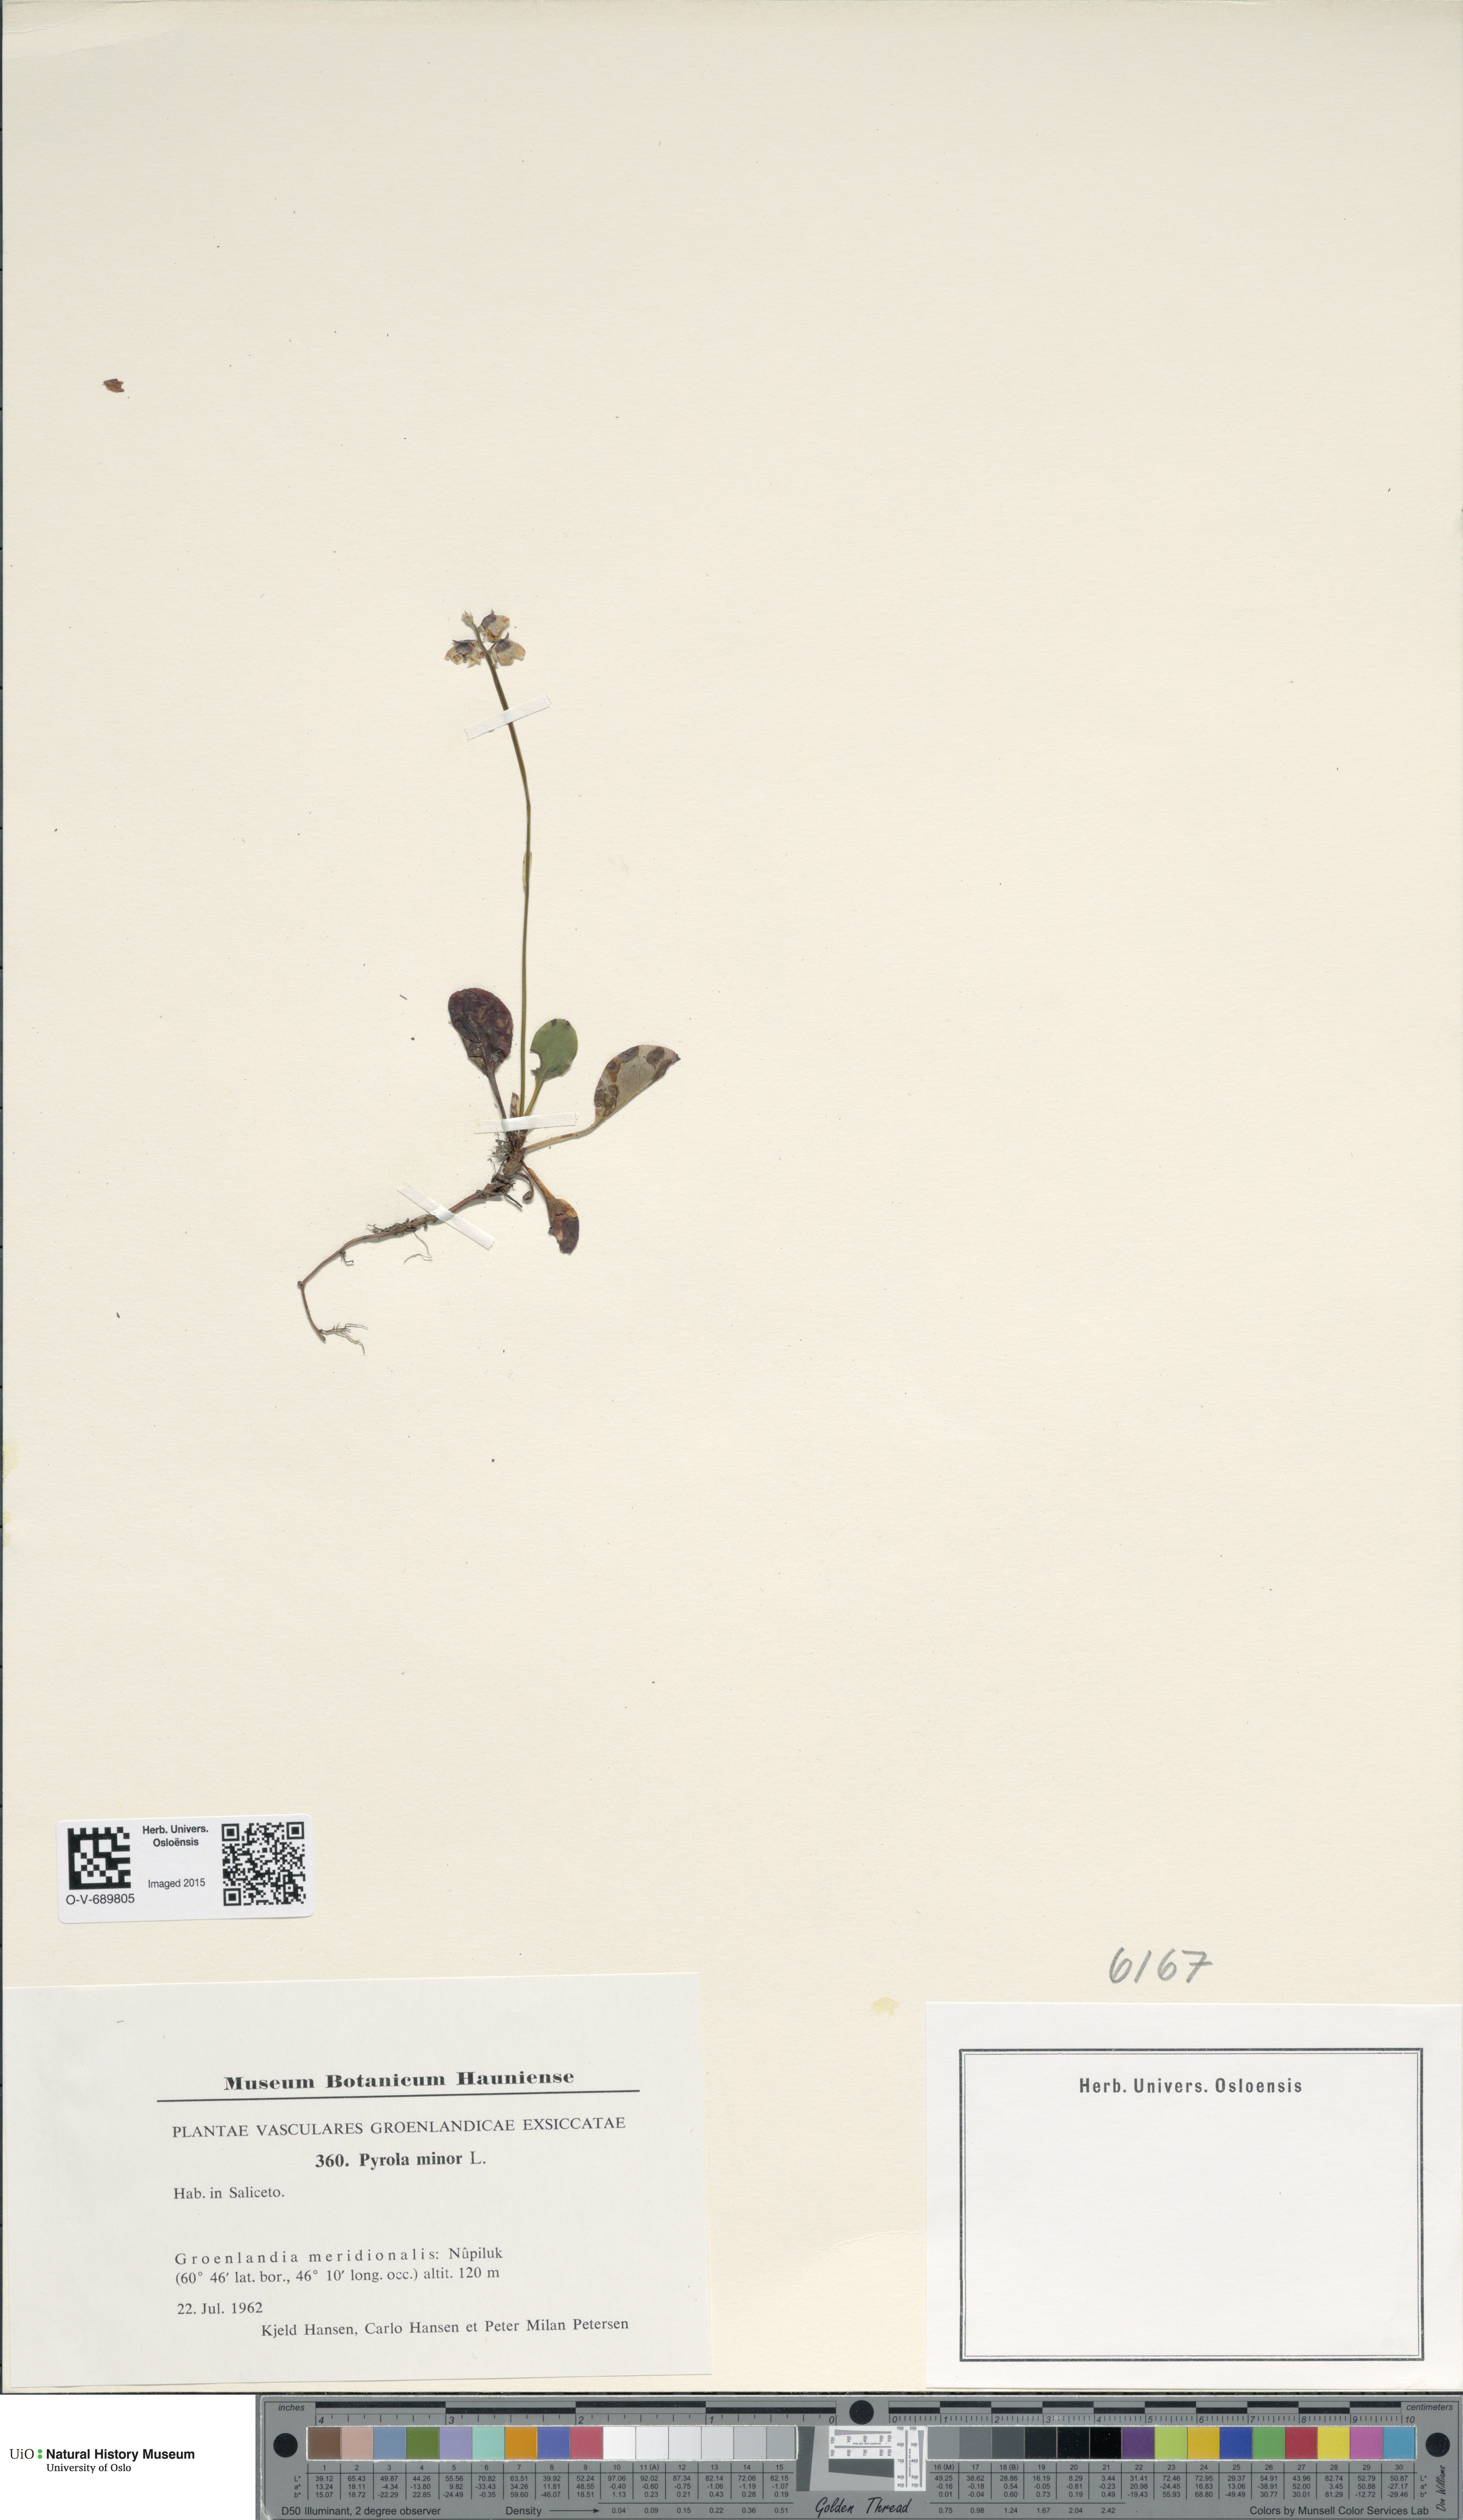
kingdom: Plantae
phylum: Tracheophyta
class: Magnoliopsida
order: Ericales
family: Ericaceae
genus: Pyrola
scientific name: Pyrola minor
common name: Common wintergreen
